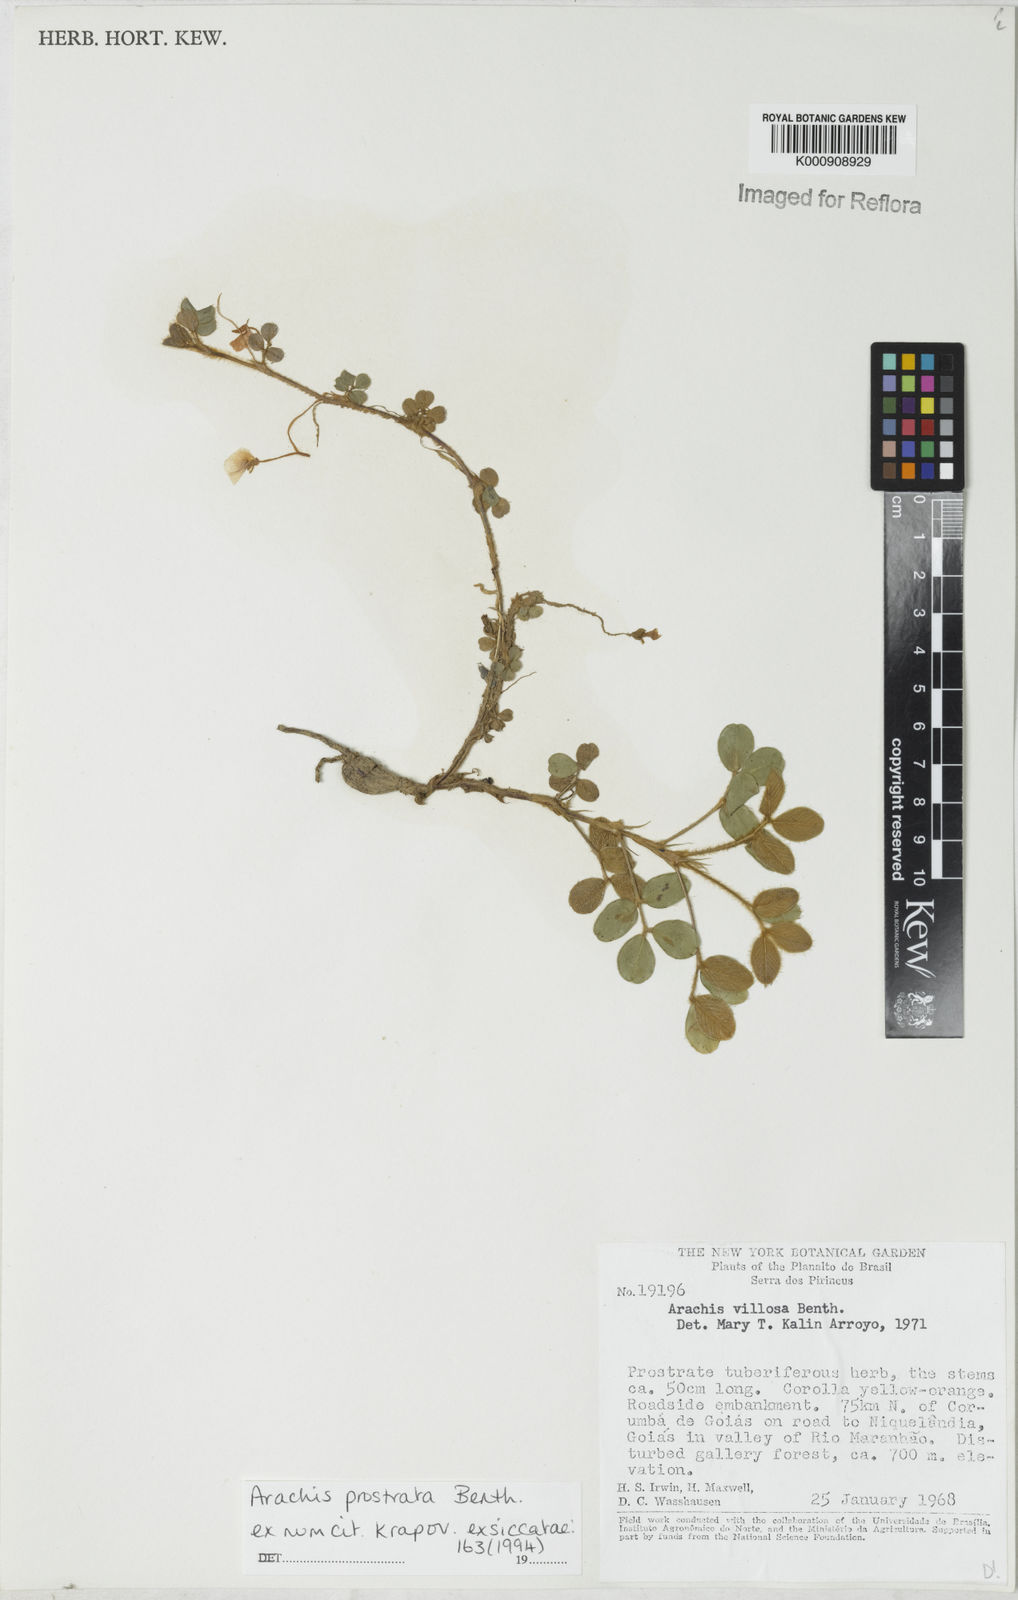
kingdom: Plantae
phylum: Tracheophyta
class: Magnoliopsida
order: Fabales
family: Fabaceae
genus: Arachis
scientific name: Arachis prostrata
